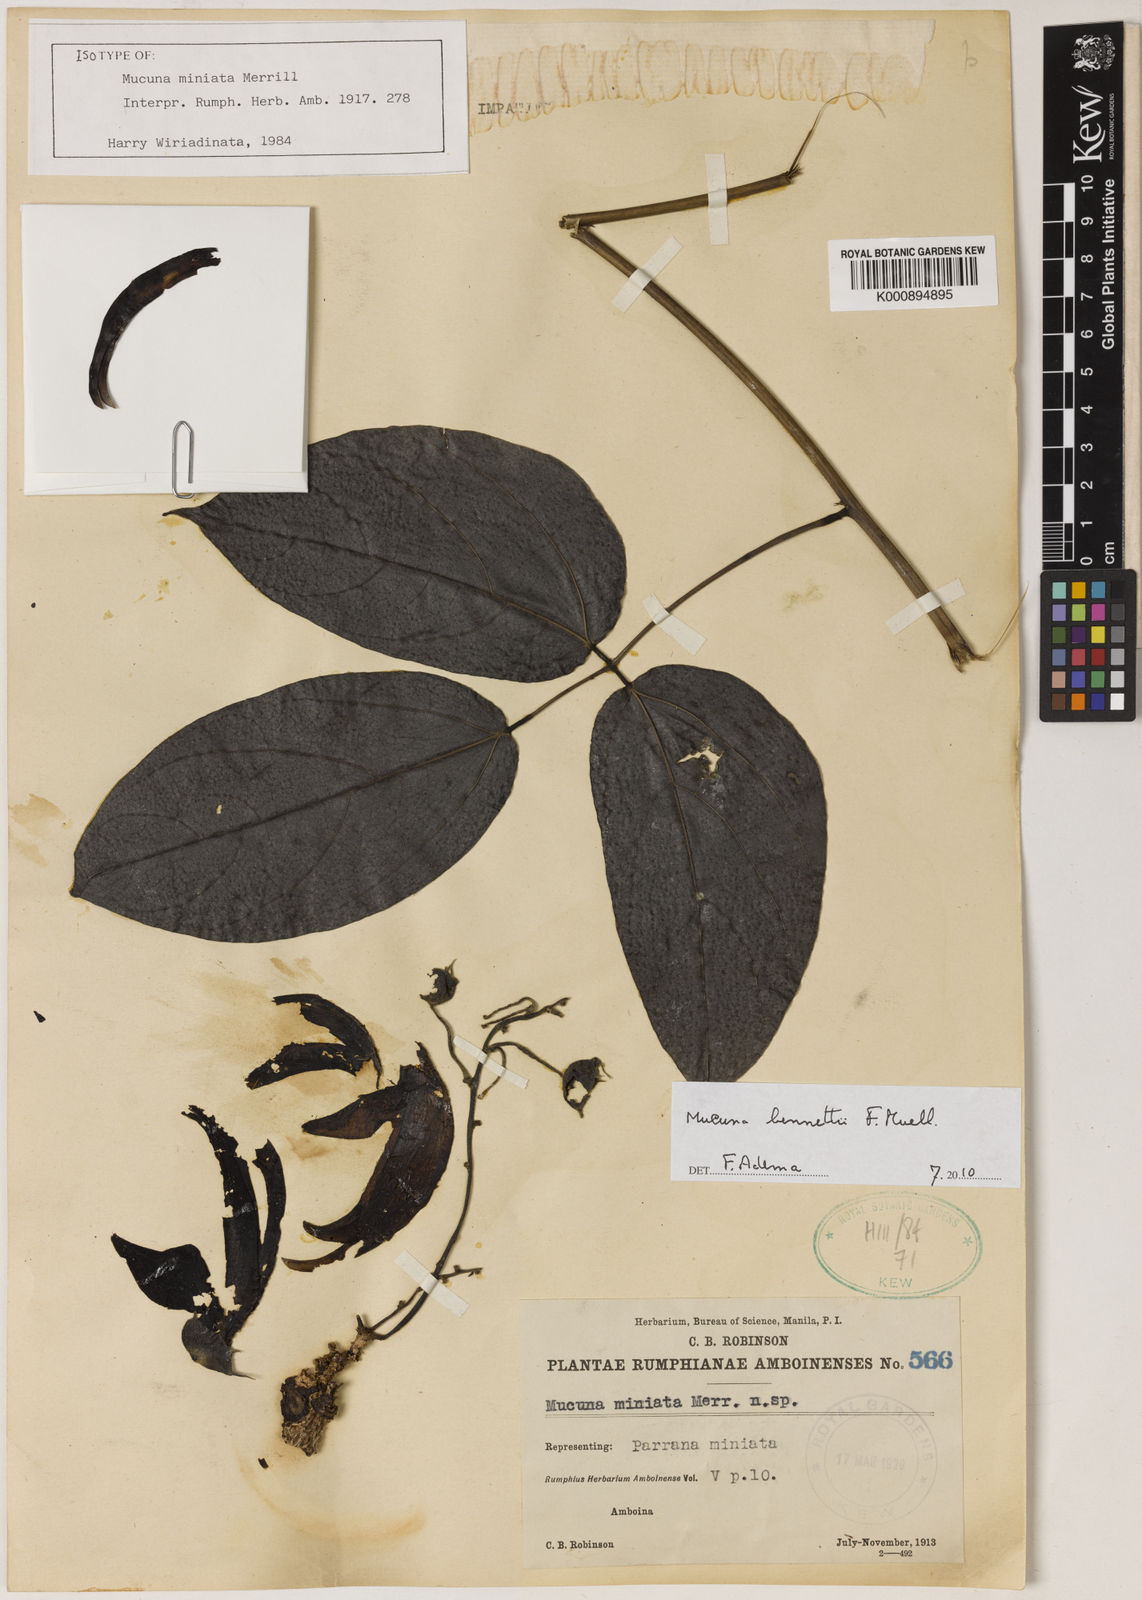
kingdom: Plantae
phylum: Tracheophyta
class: Magnoliopsida
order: Fabales
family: Fabaceae
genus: Mucuna
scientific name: Mucuna bennettii
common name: New guinea creeper
